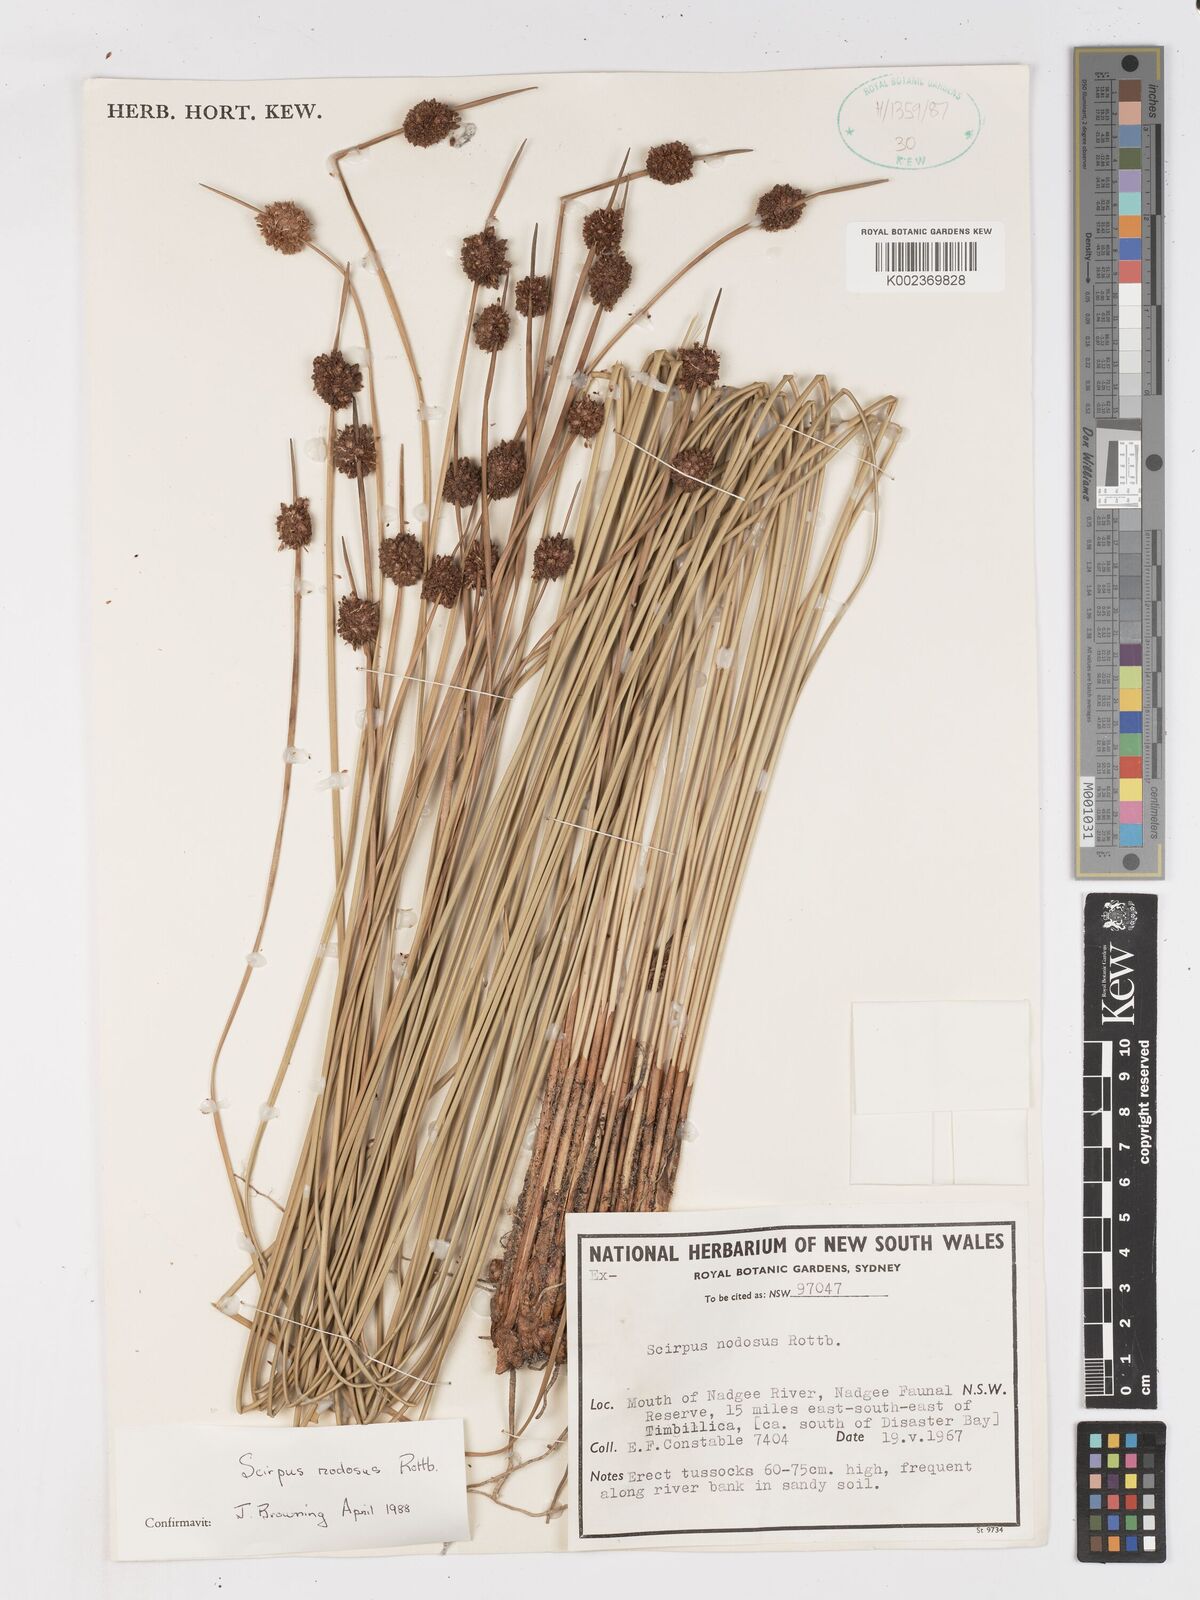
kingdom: Plantae
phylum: Tracheophyta
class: Liliopsida
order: Poales
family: Cyperaceae
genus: Ficinia
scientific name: Ficinia nodosa
